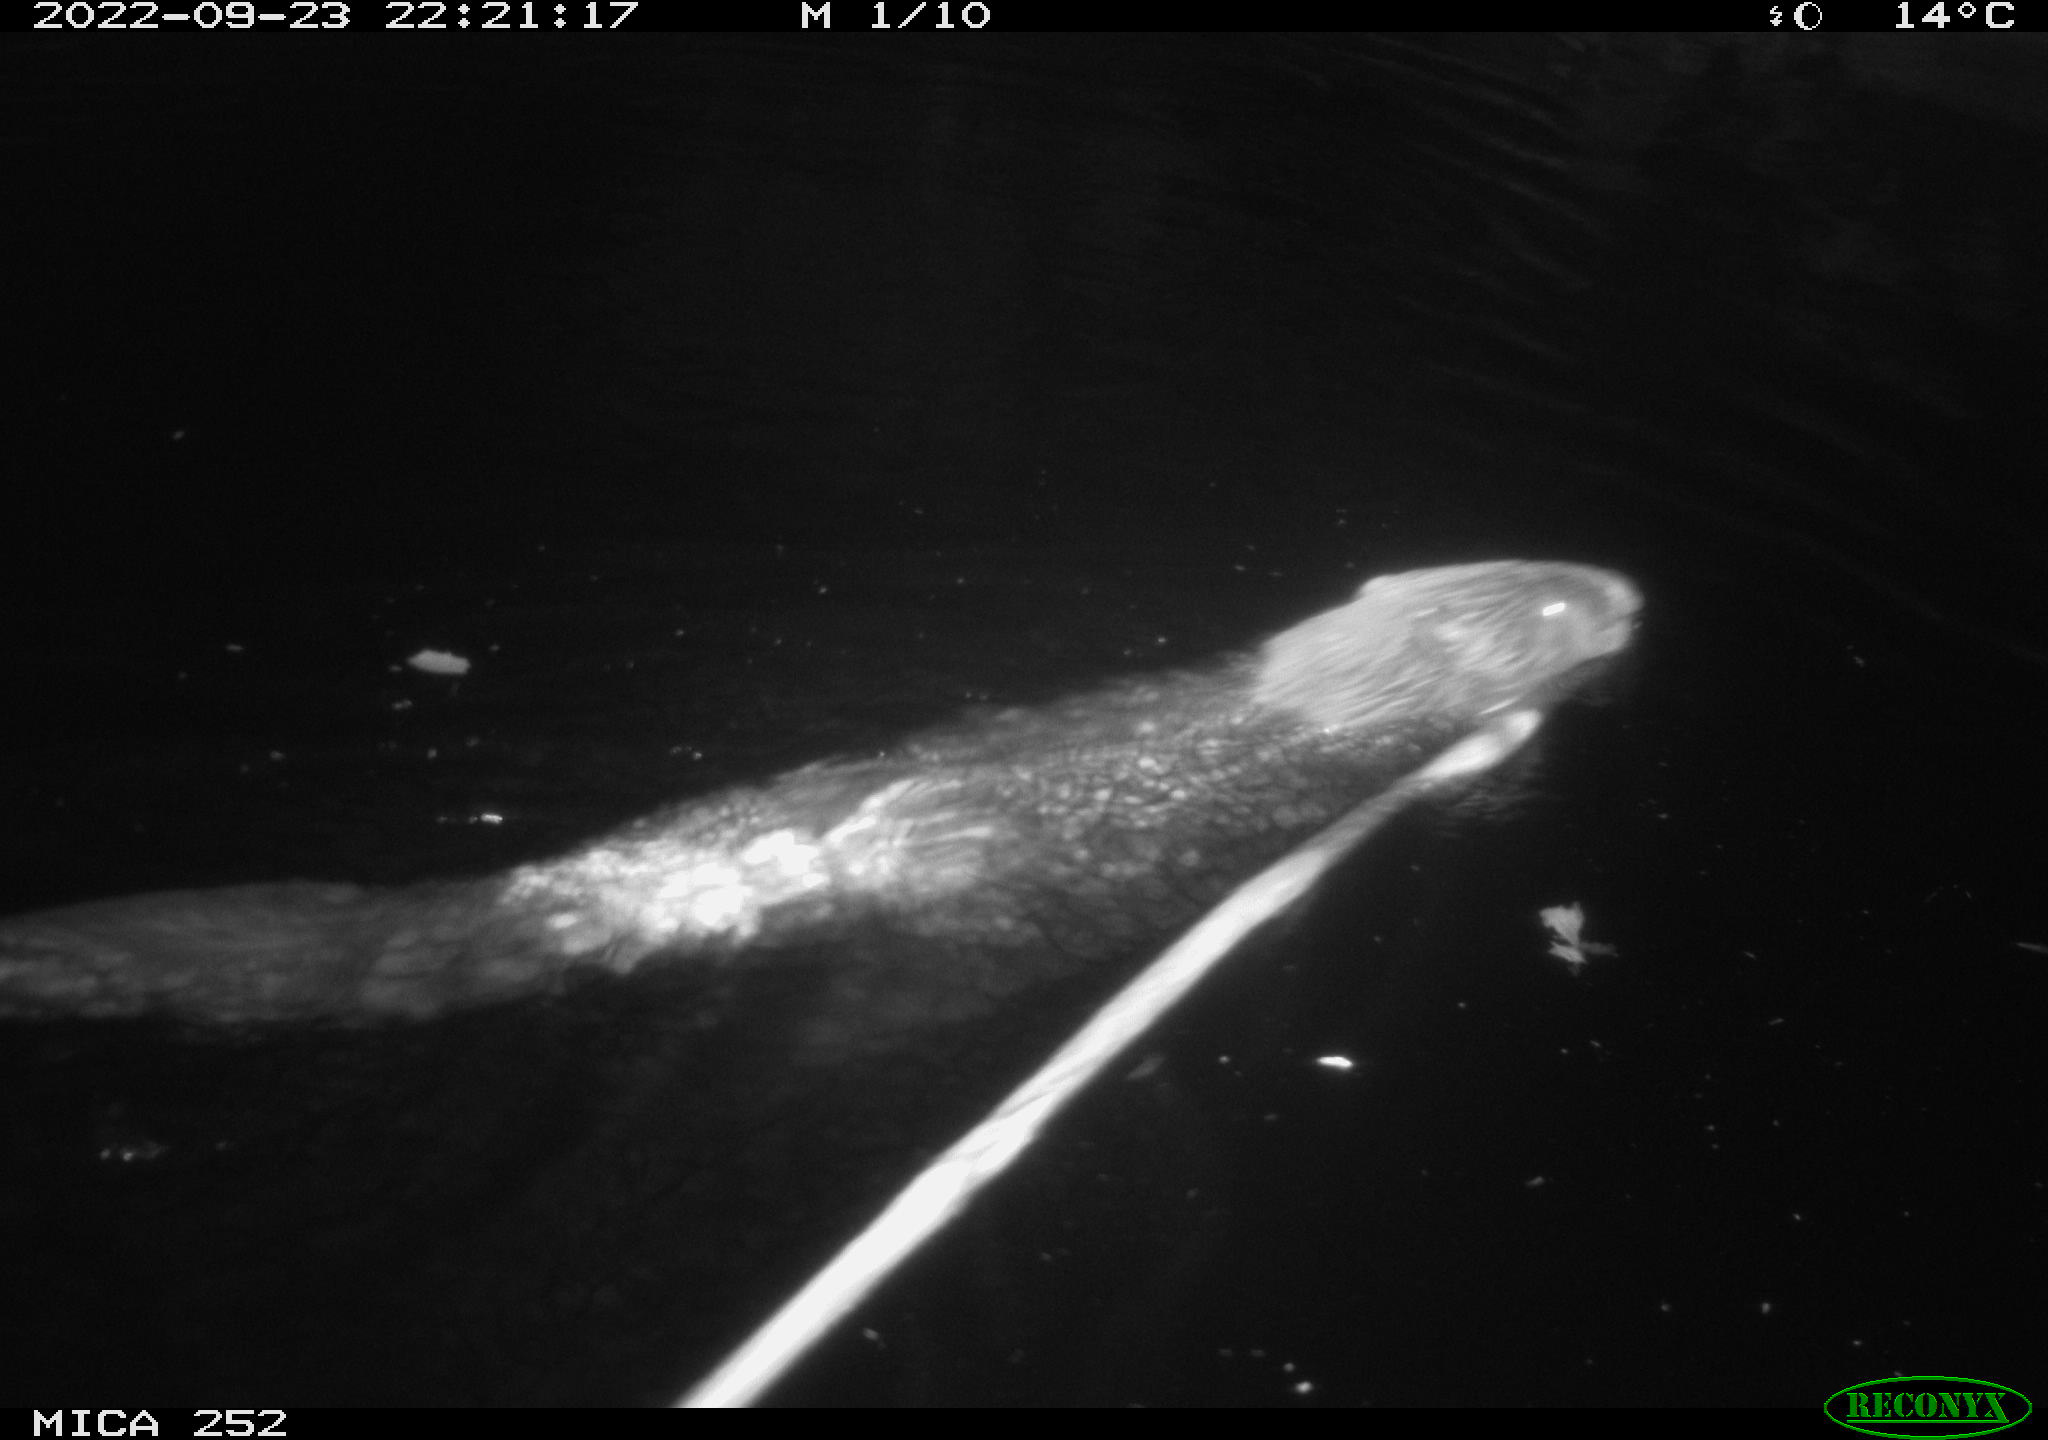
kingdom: Animalia
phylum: Chordata
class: Mammalia
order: Rodentia
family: Castoridae
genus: Castor
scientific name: Castor fiber
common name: Eurasian beaver
